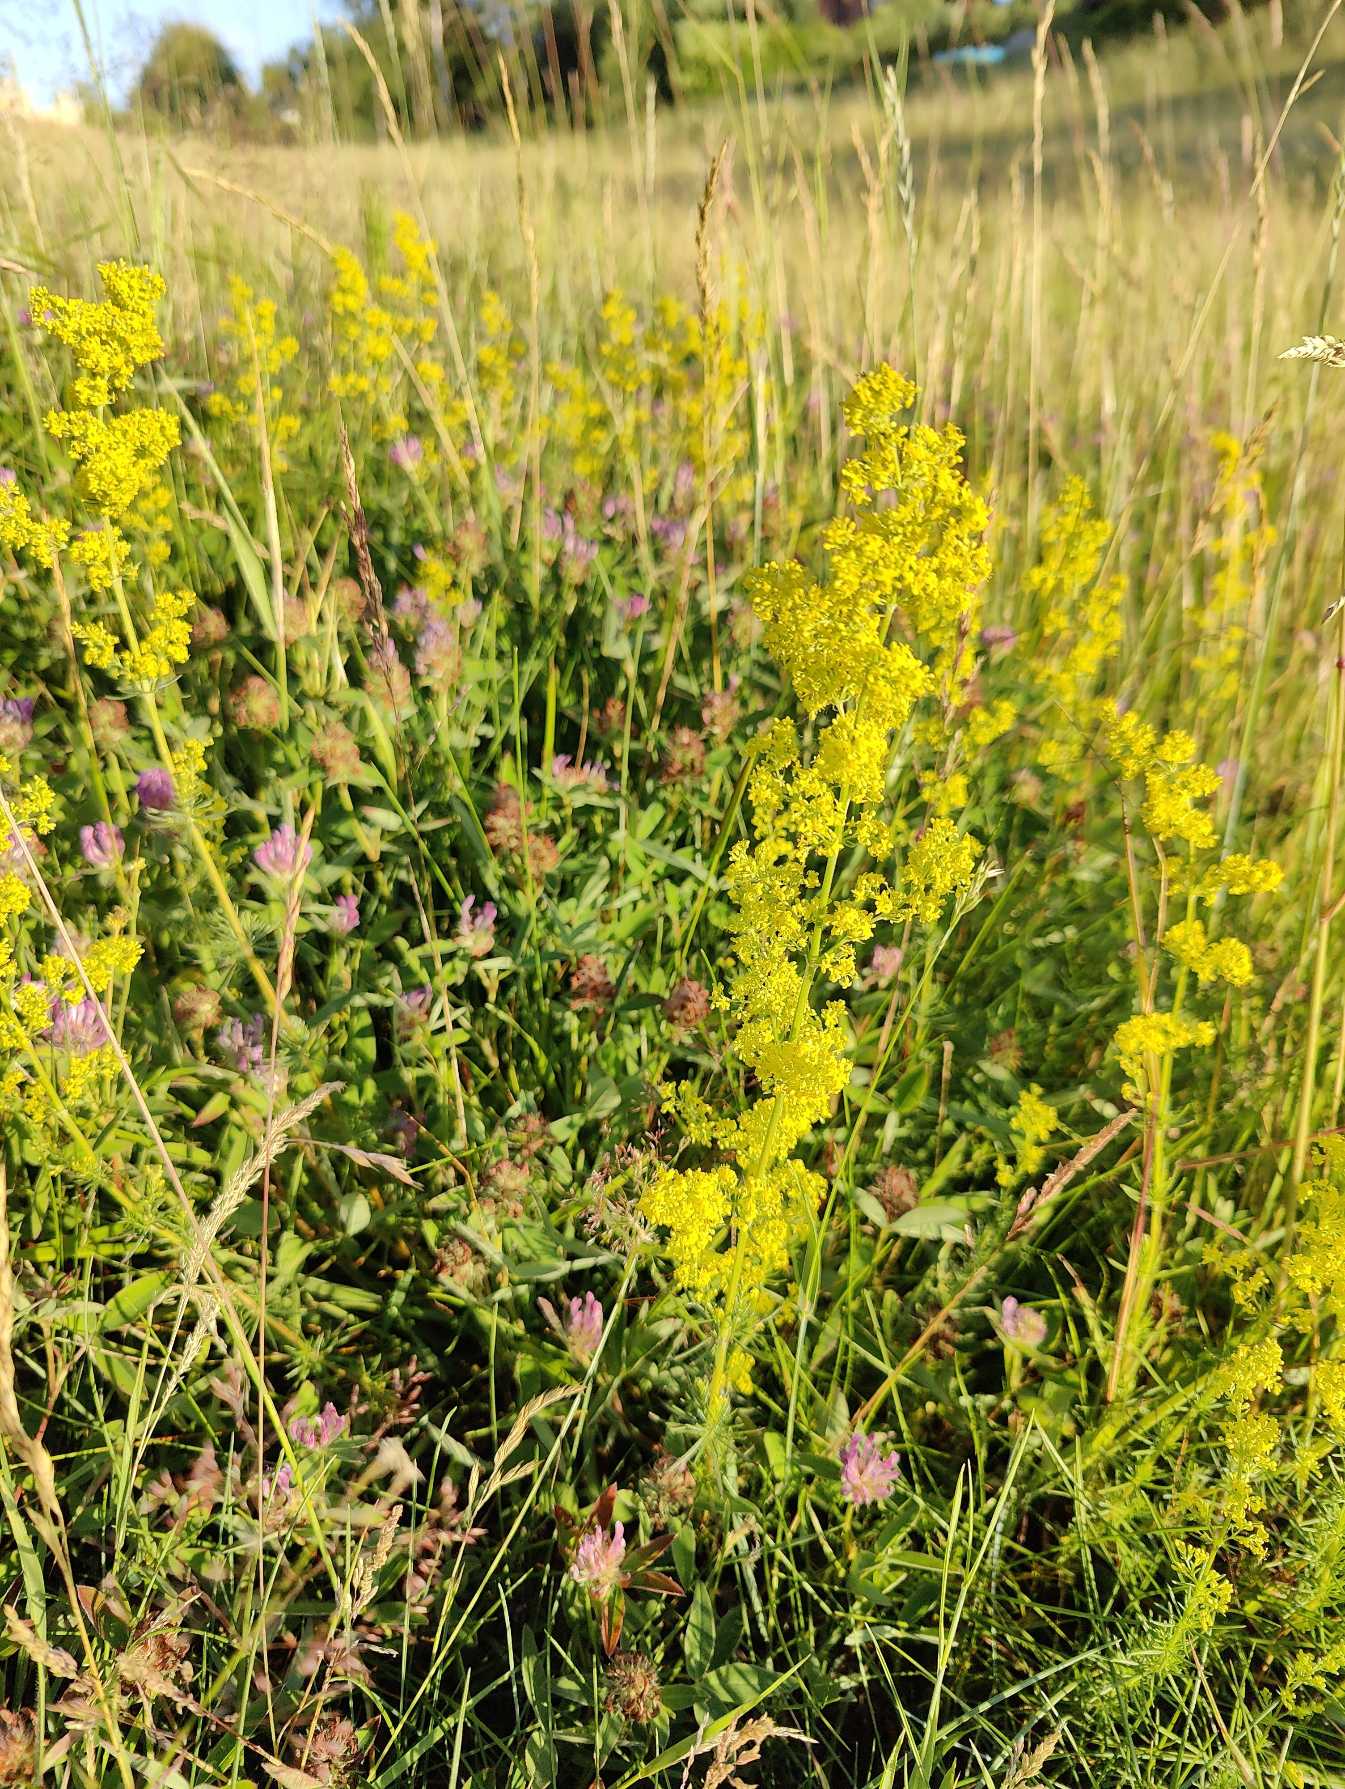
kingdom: Plantae
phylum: Tracheophyta
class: Magnoliopsida
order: Gentianales
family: Rubiaceae
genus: Galium
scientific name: Galium verum
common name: Gul snerre
